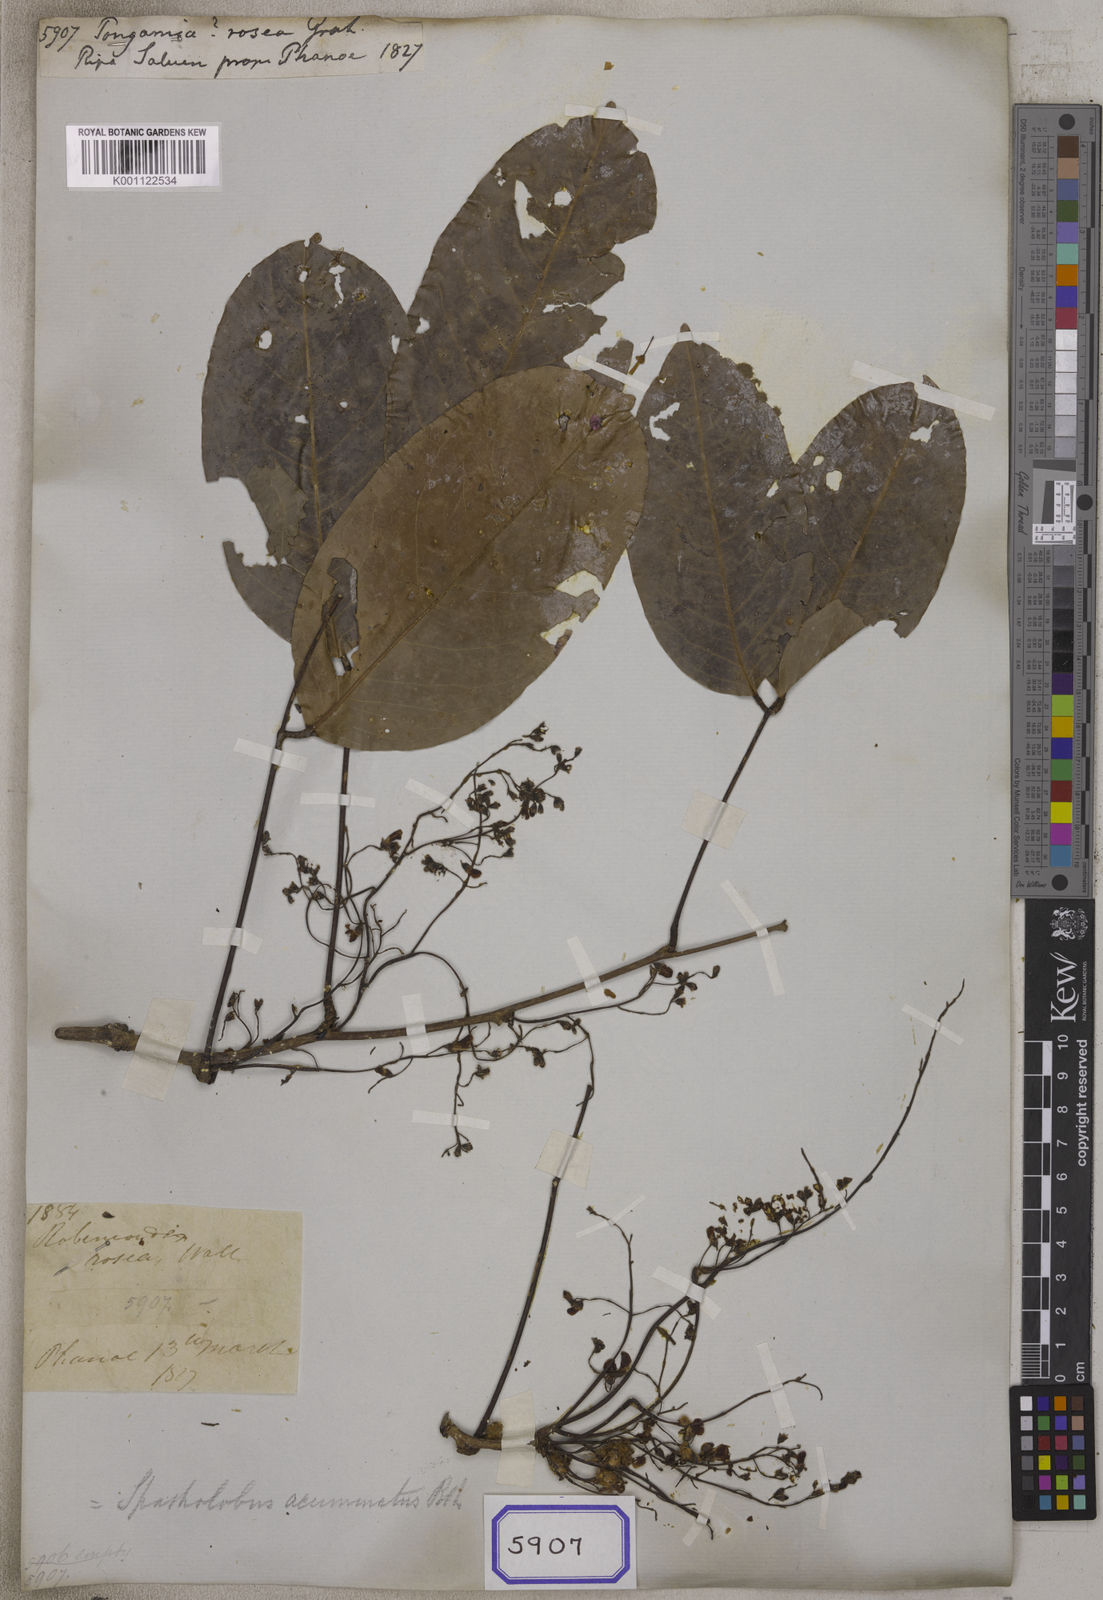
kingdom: Plantae
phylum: Tracheophyta
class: Magnoliopsida
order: Fabales
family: Fabaceae
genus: Spatholobus
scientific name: Spatholobus acuminatus
